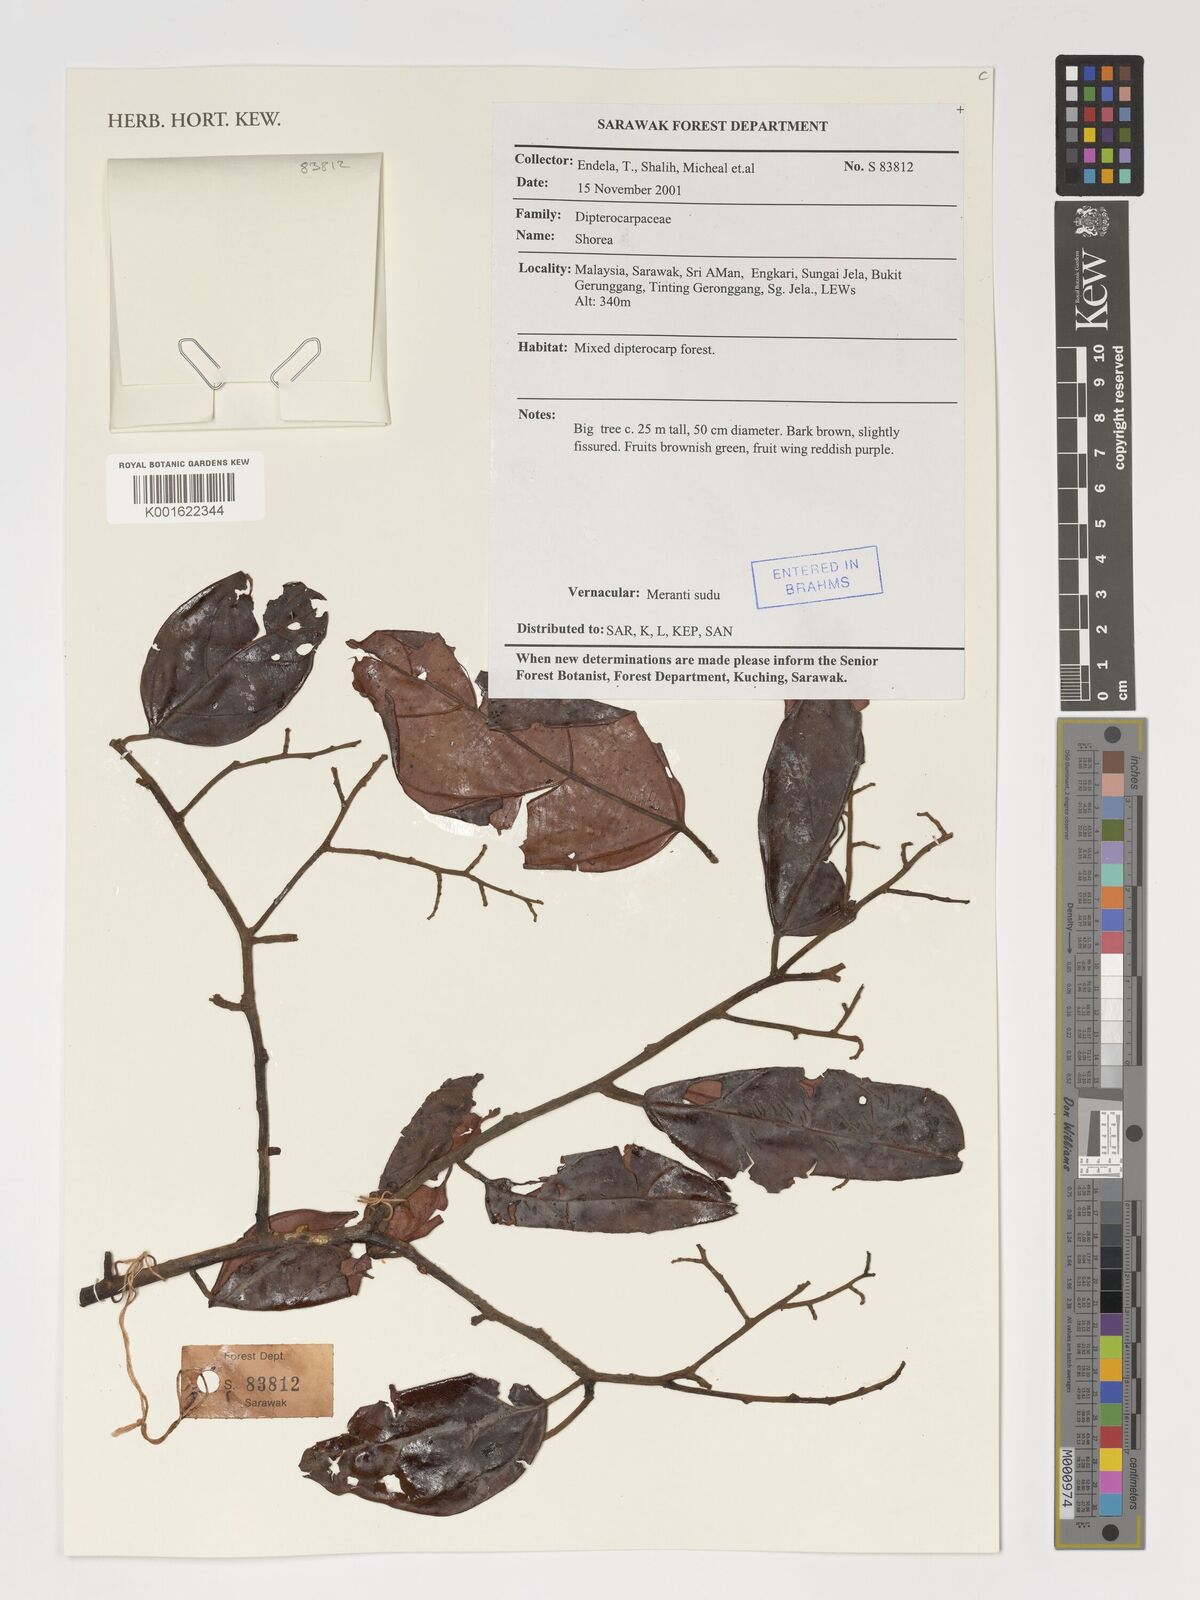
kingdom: Plantae
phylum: Tracheophyta
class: Magnoliopsida
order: Malvales
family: Dipterocarpaceae
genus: Shorea
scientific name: Shorea
